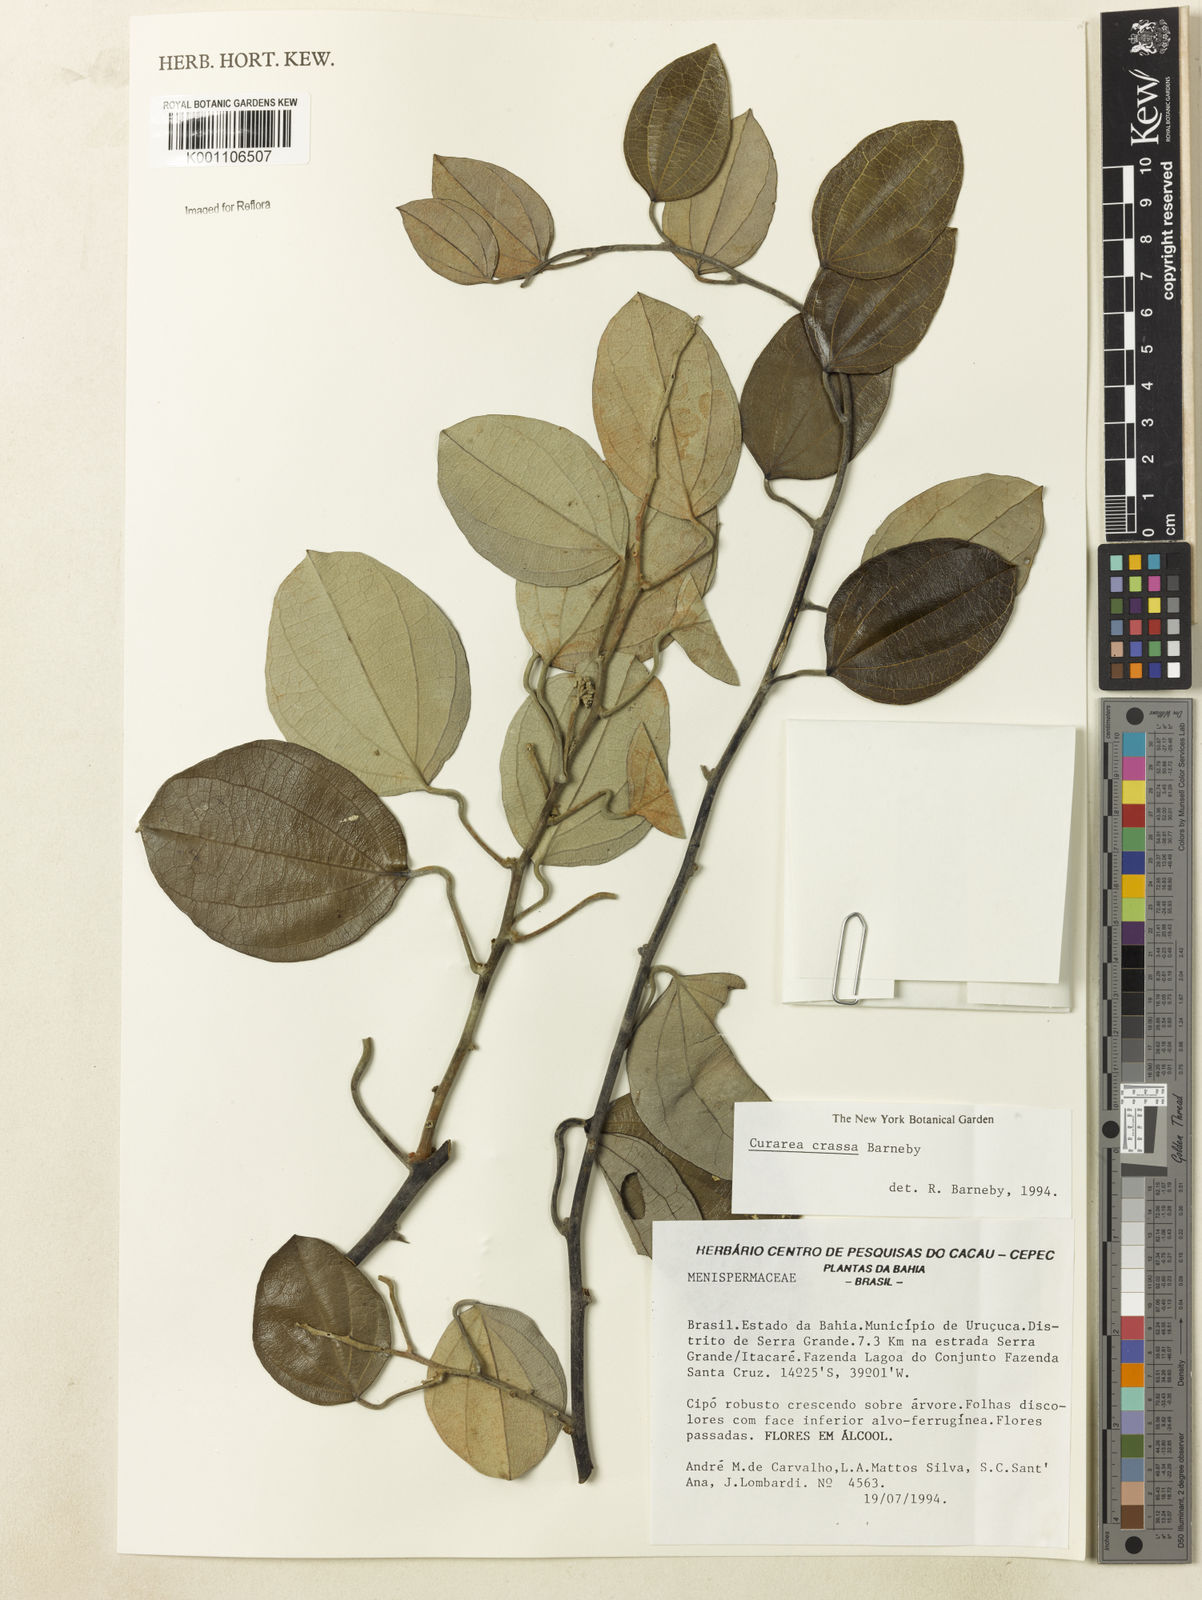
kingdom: Plantae
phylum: Tracheophyta
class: Magnoliopsida
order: Ranunculales
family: Menispermaceae
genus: Curarea
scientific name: Curarea crassa
